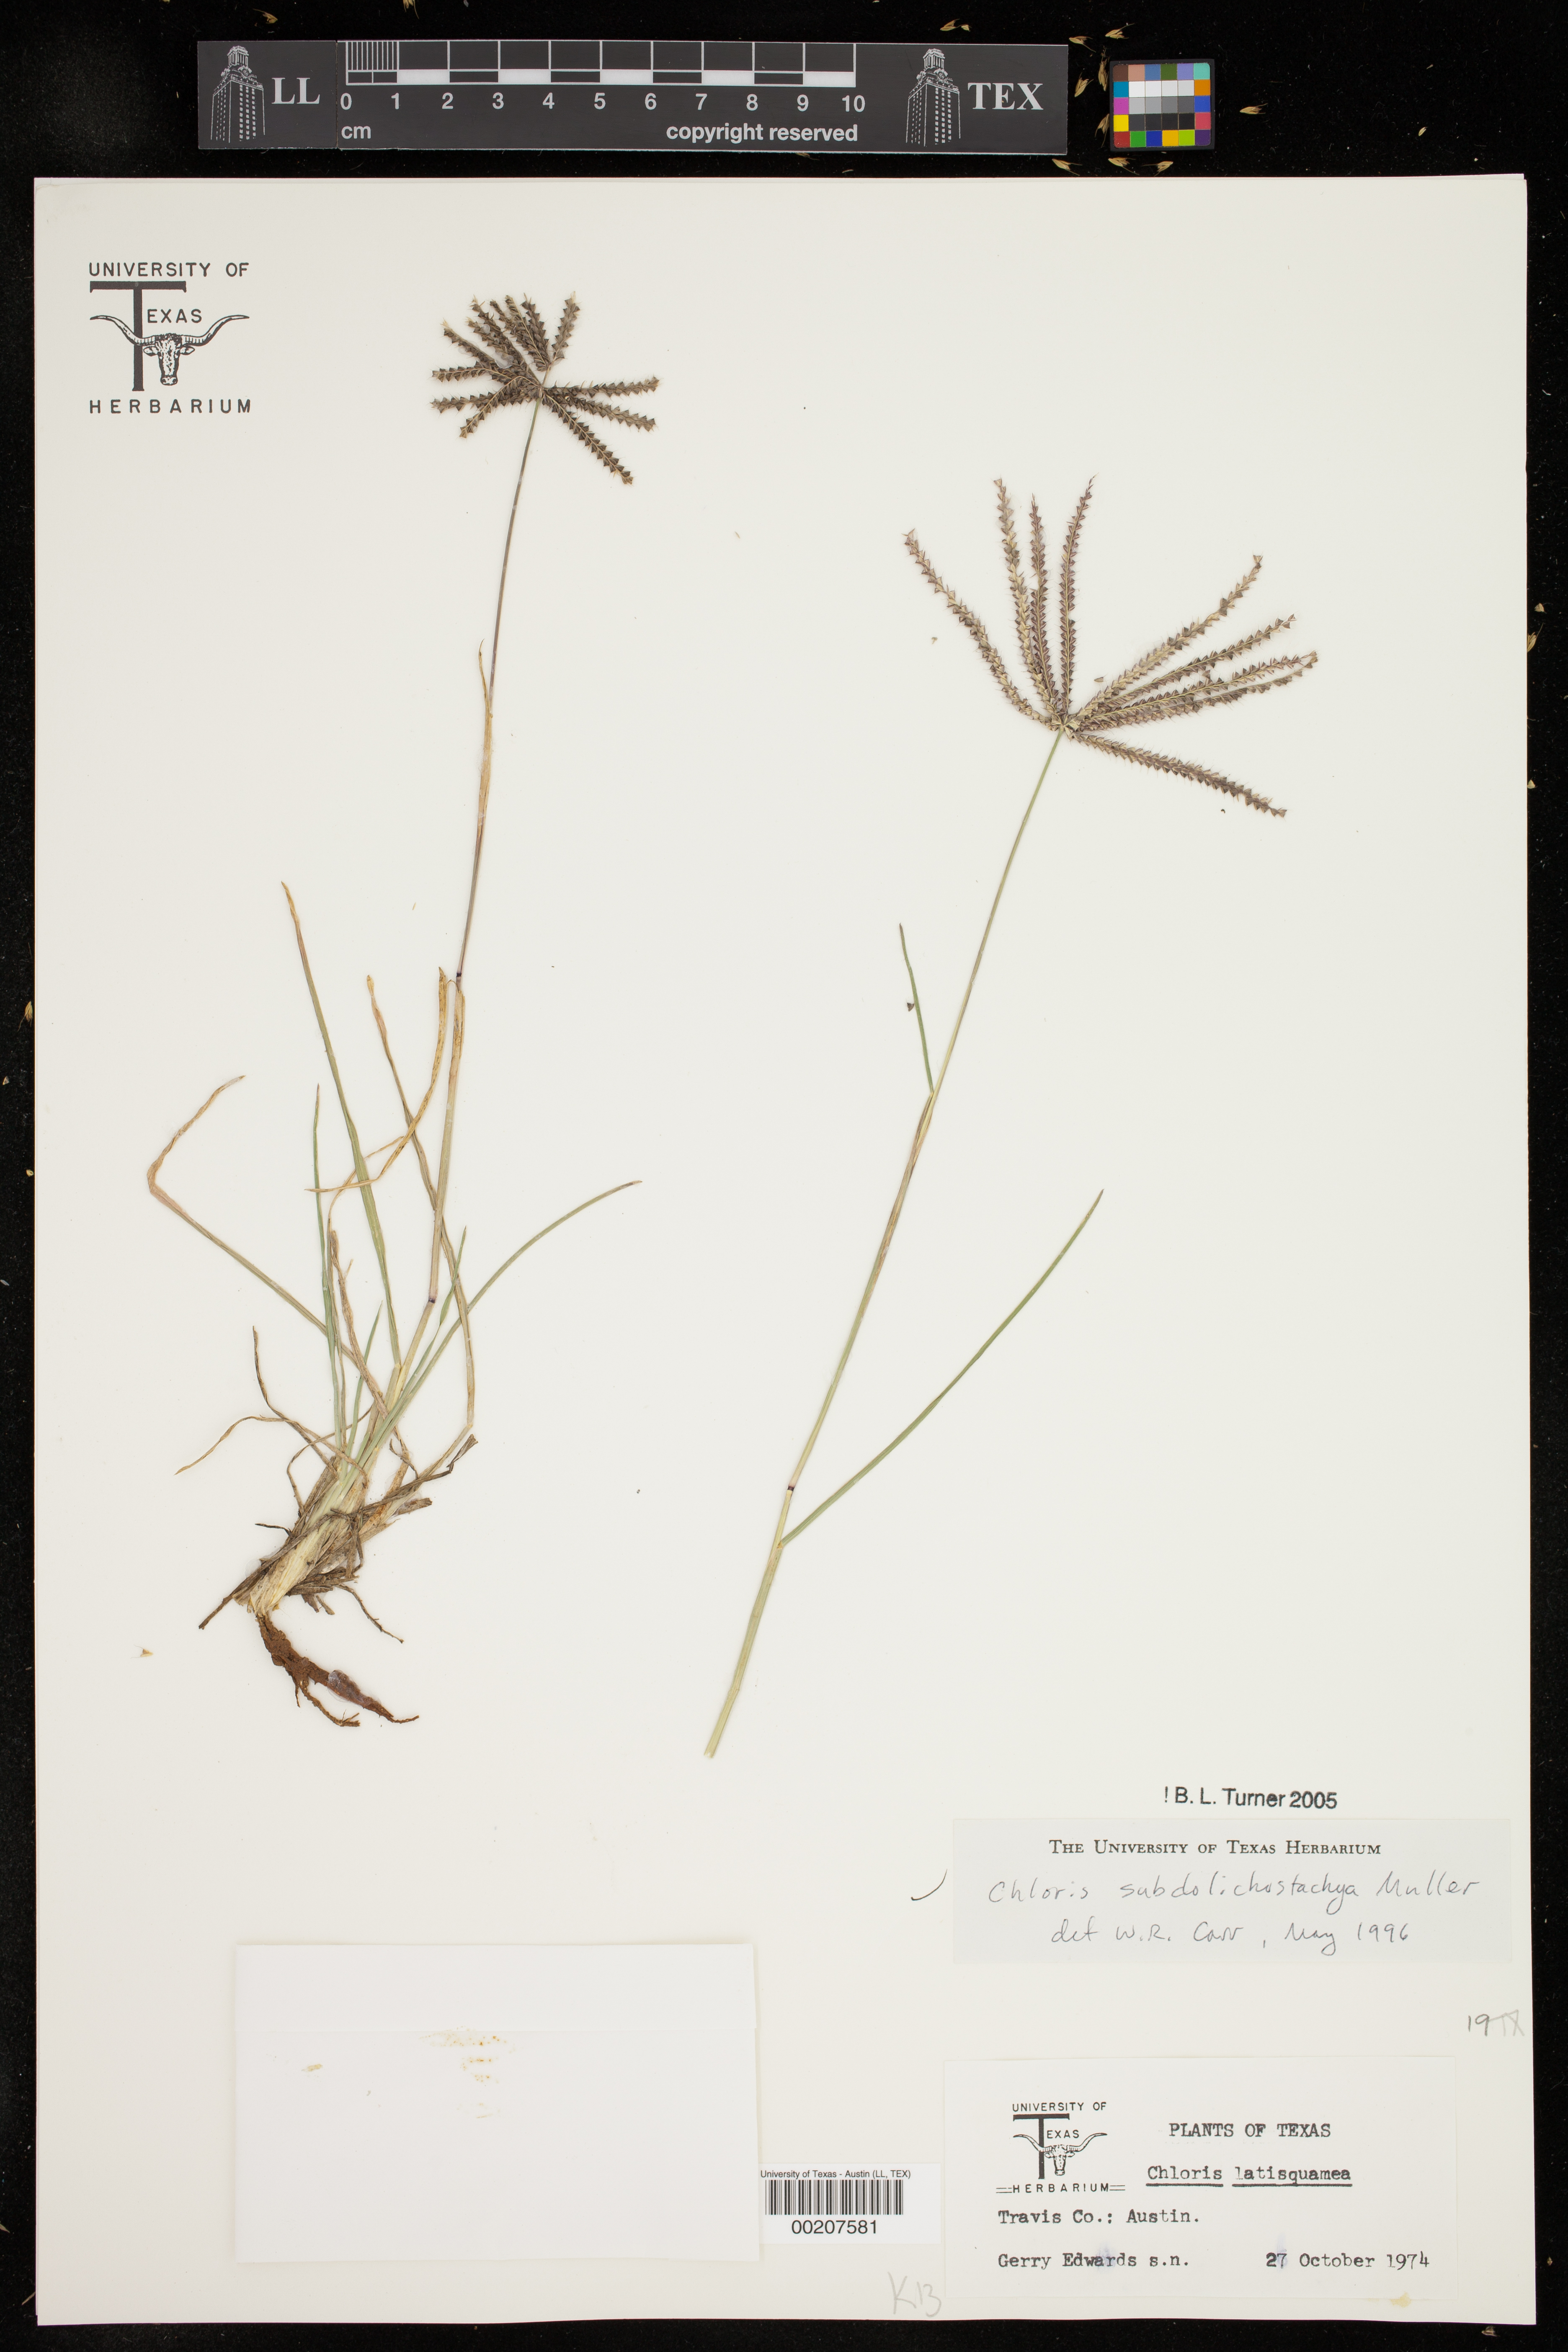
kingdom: Plantae
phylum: Tracheophyta
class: Liliopsida
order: Poales
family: Poaceae
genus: Chloris
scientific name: Chloris subdolichostachya
